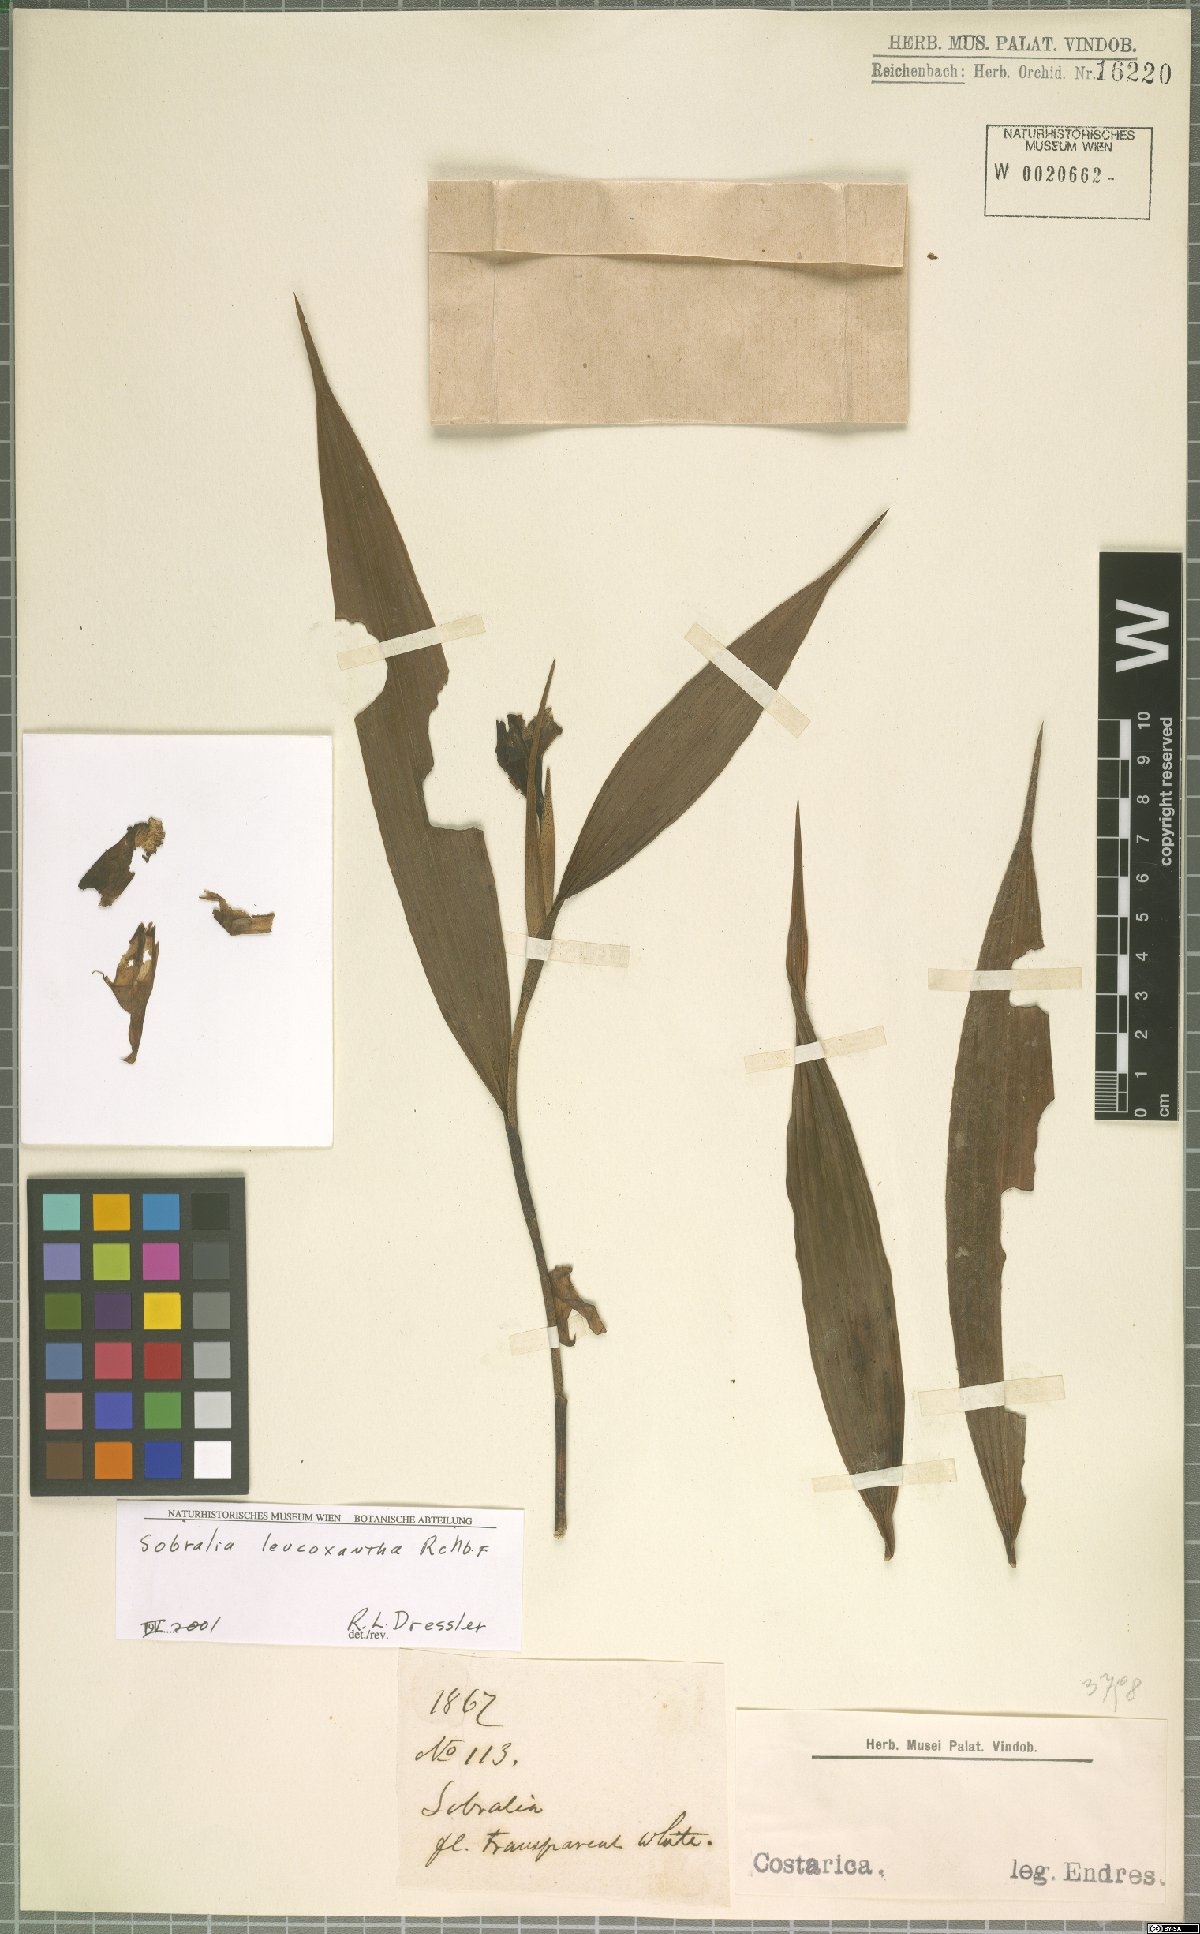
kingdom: Plantae
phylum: Tracheophyta
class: Liliopsida
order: Asparagales
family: Orchidaceae
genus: Sobralia
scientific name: Sobralia leucoxantha
